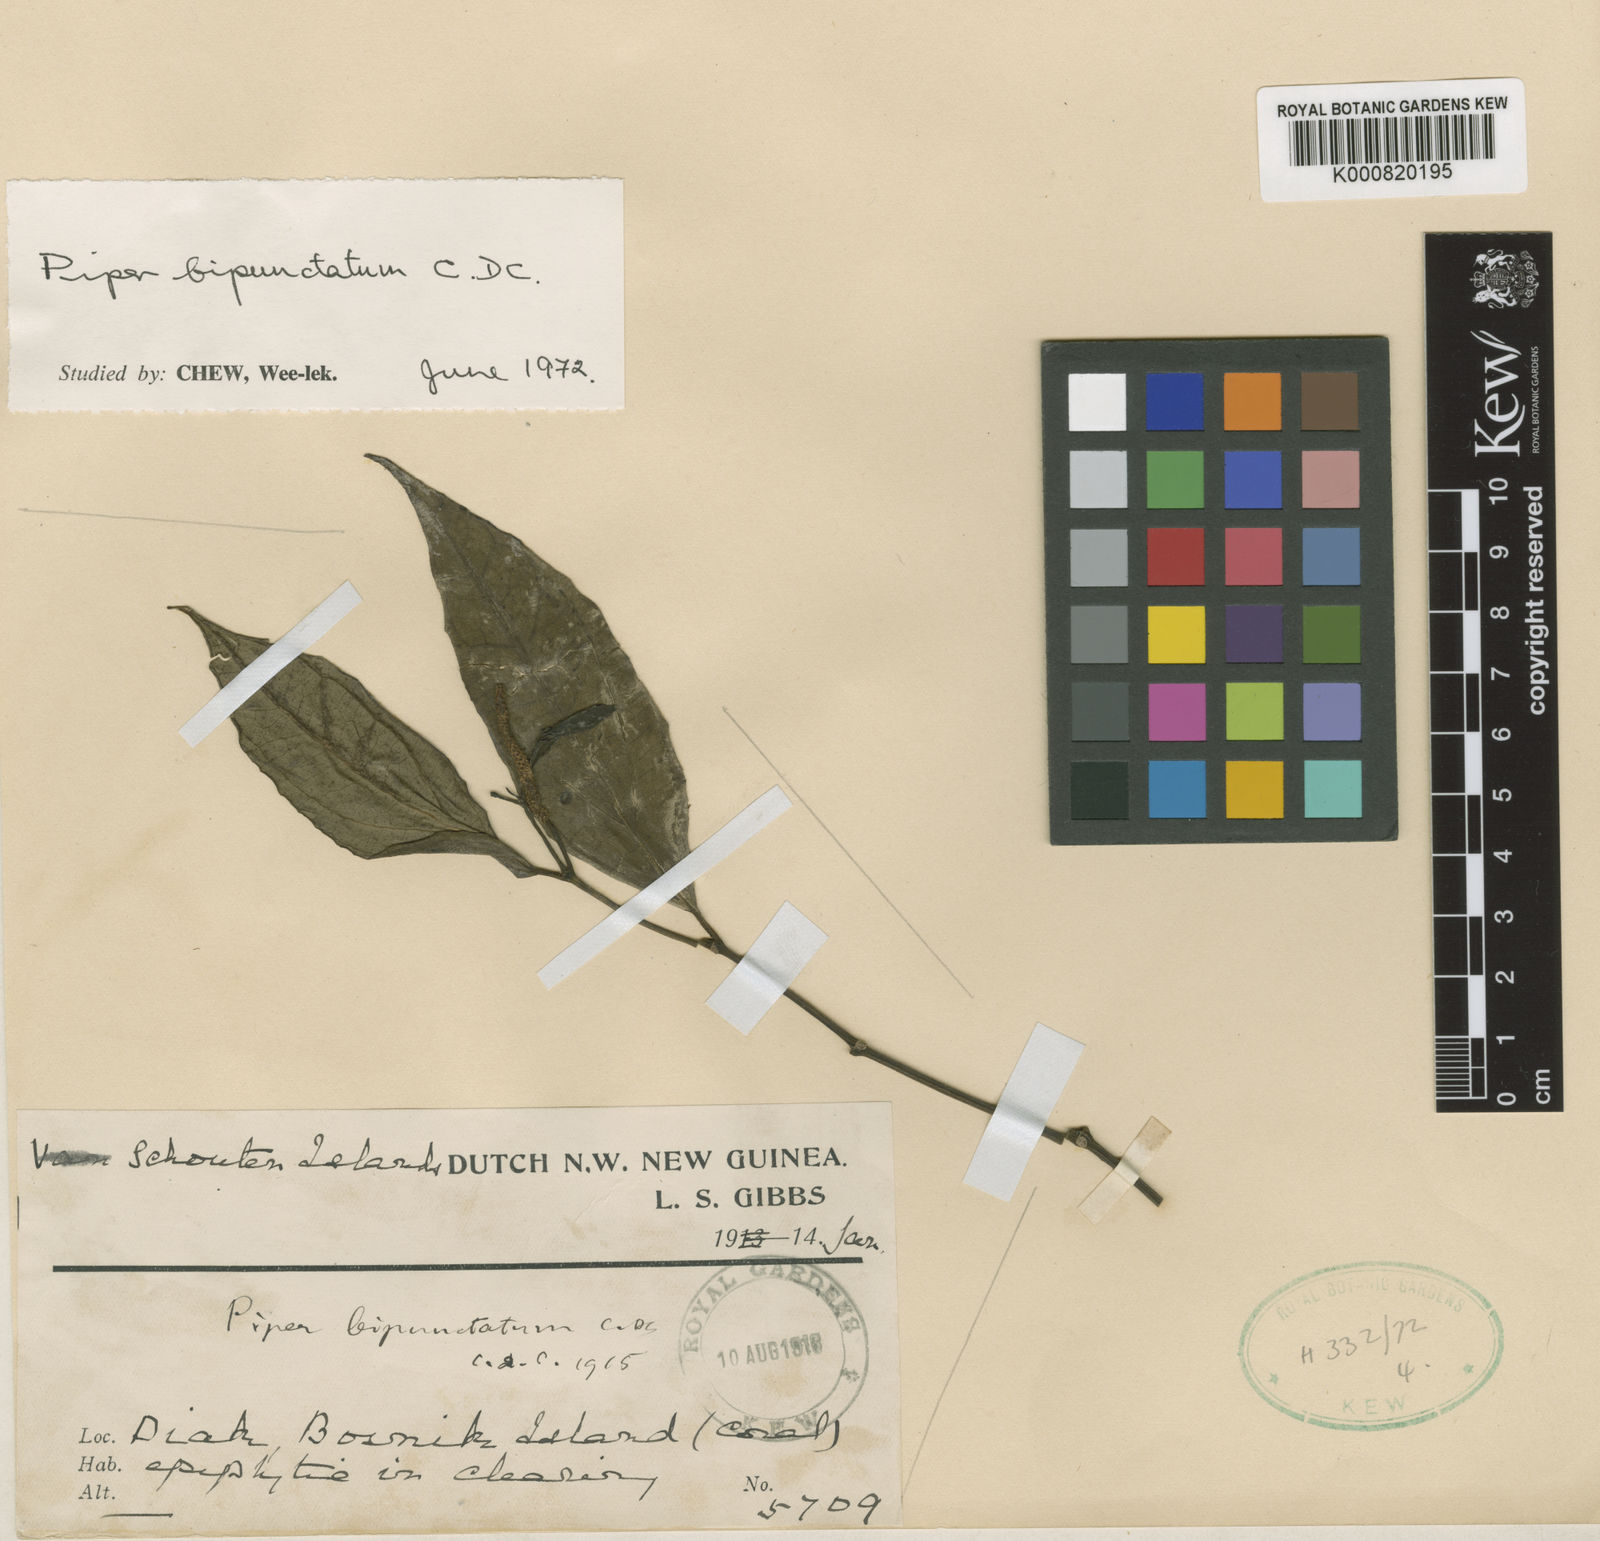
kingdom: Plantae
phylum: Tracheophyta
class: Magnoliopsida
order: Piperales
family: Piperaceae
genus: Piper
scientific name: Piper bipunctatum
